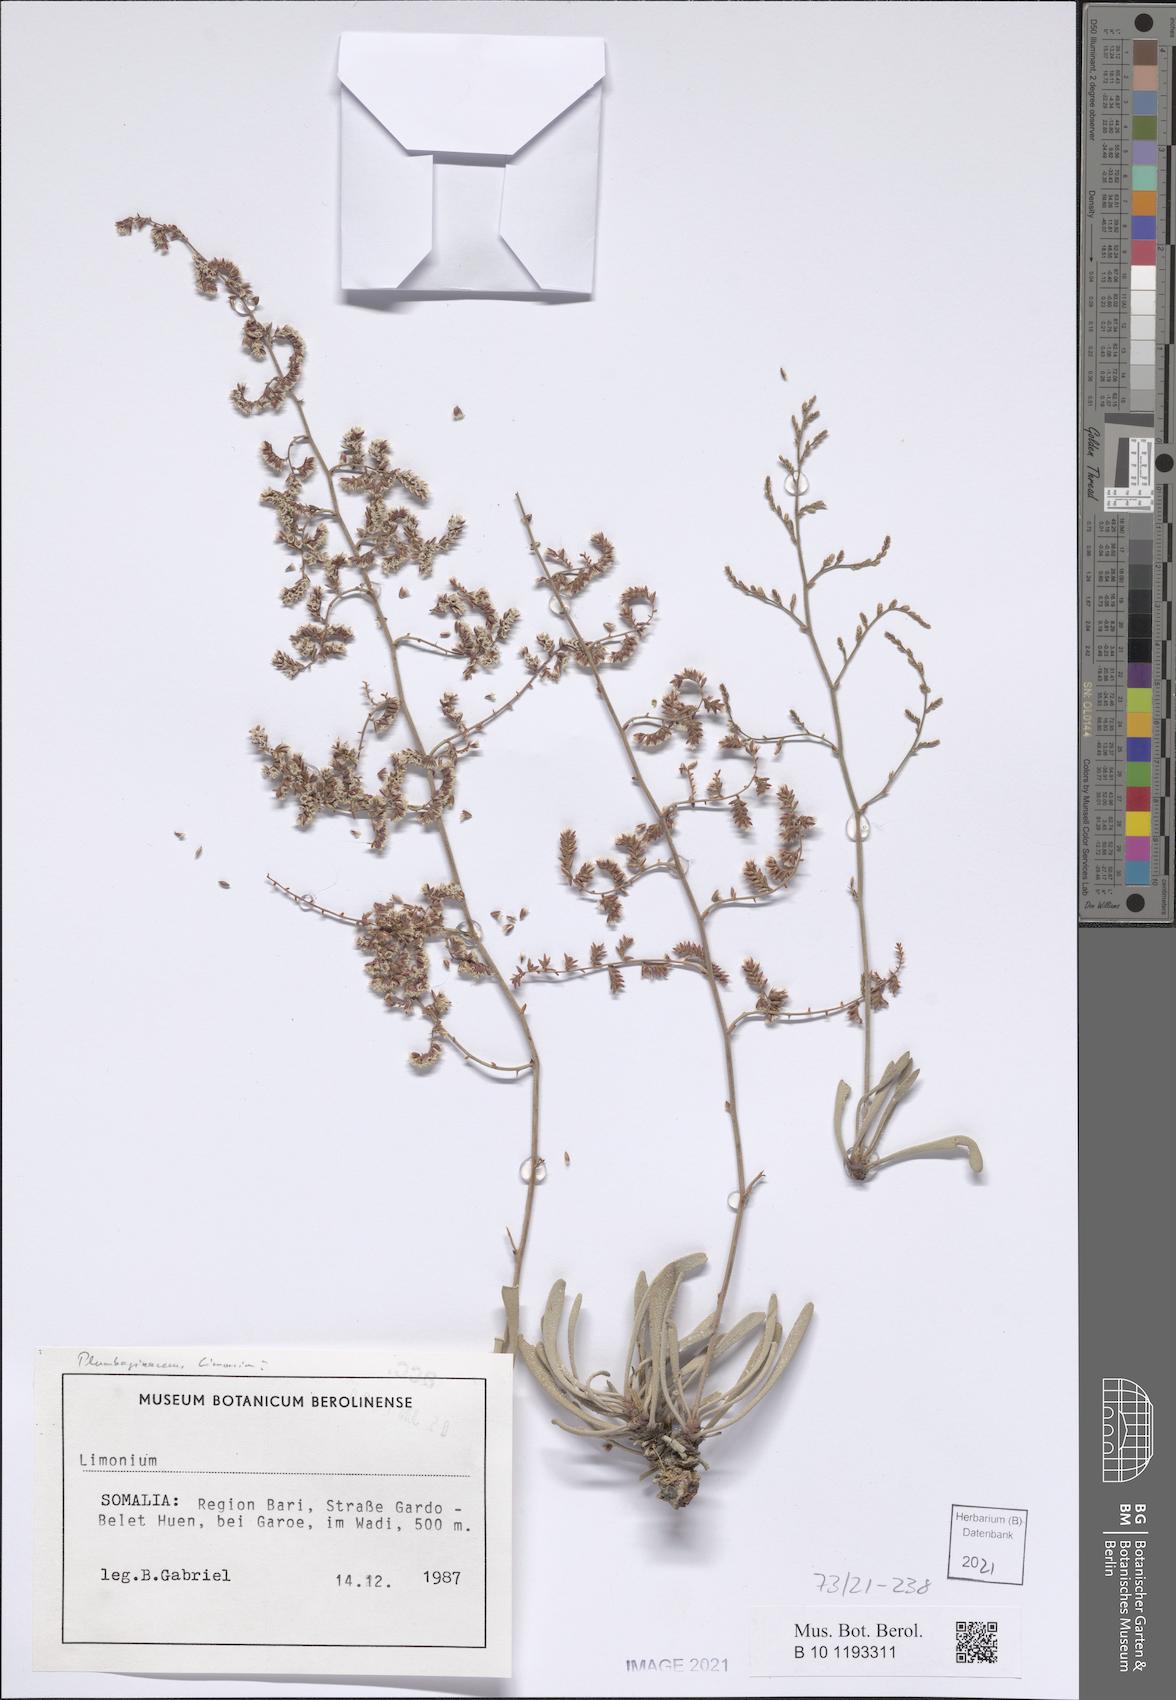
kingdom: Plantae
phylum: Tracheophyta
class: Magnoliopsida
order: Caryophyllales
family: Plumbaginaceae
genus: Limonium
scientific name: Limonium
